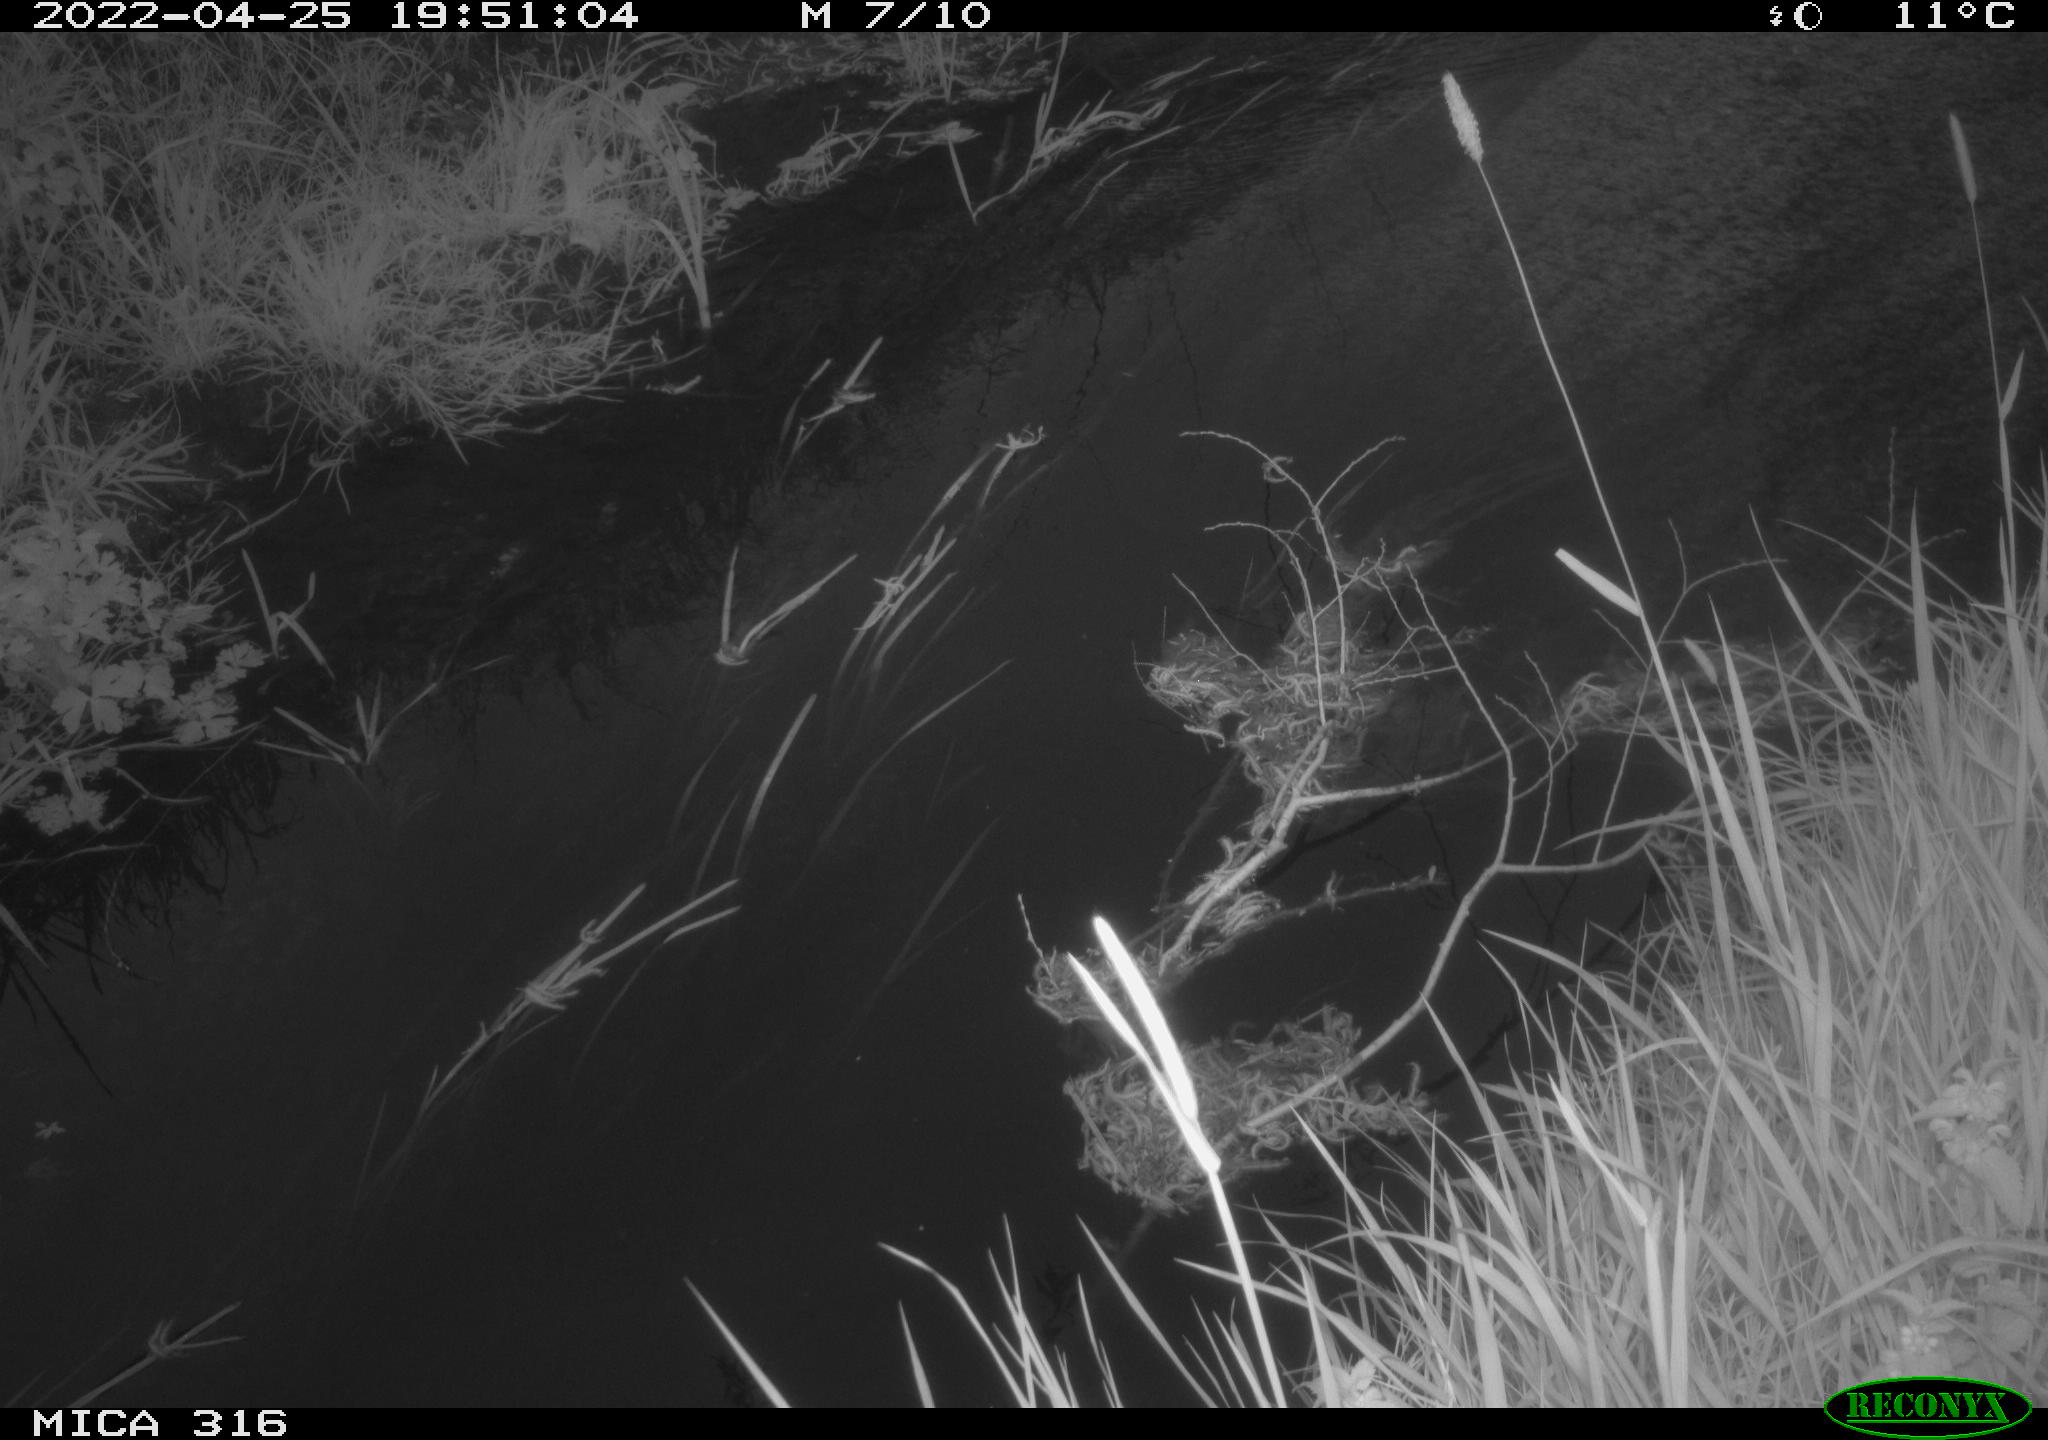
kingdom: Animalia
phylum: Chordata
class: Mammalia
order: Artiodactyla
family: Cervidae
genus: Capreolus
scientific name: Capreolus capreolus
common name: Western roe deer
